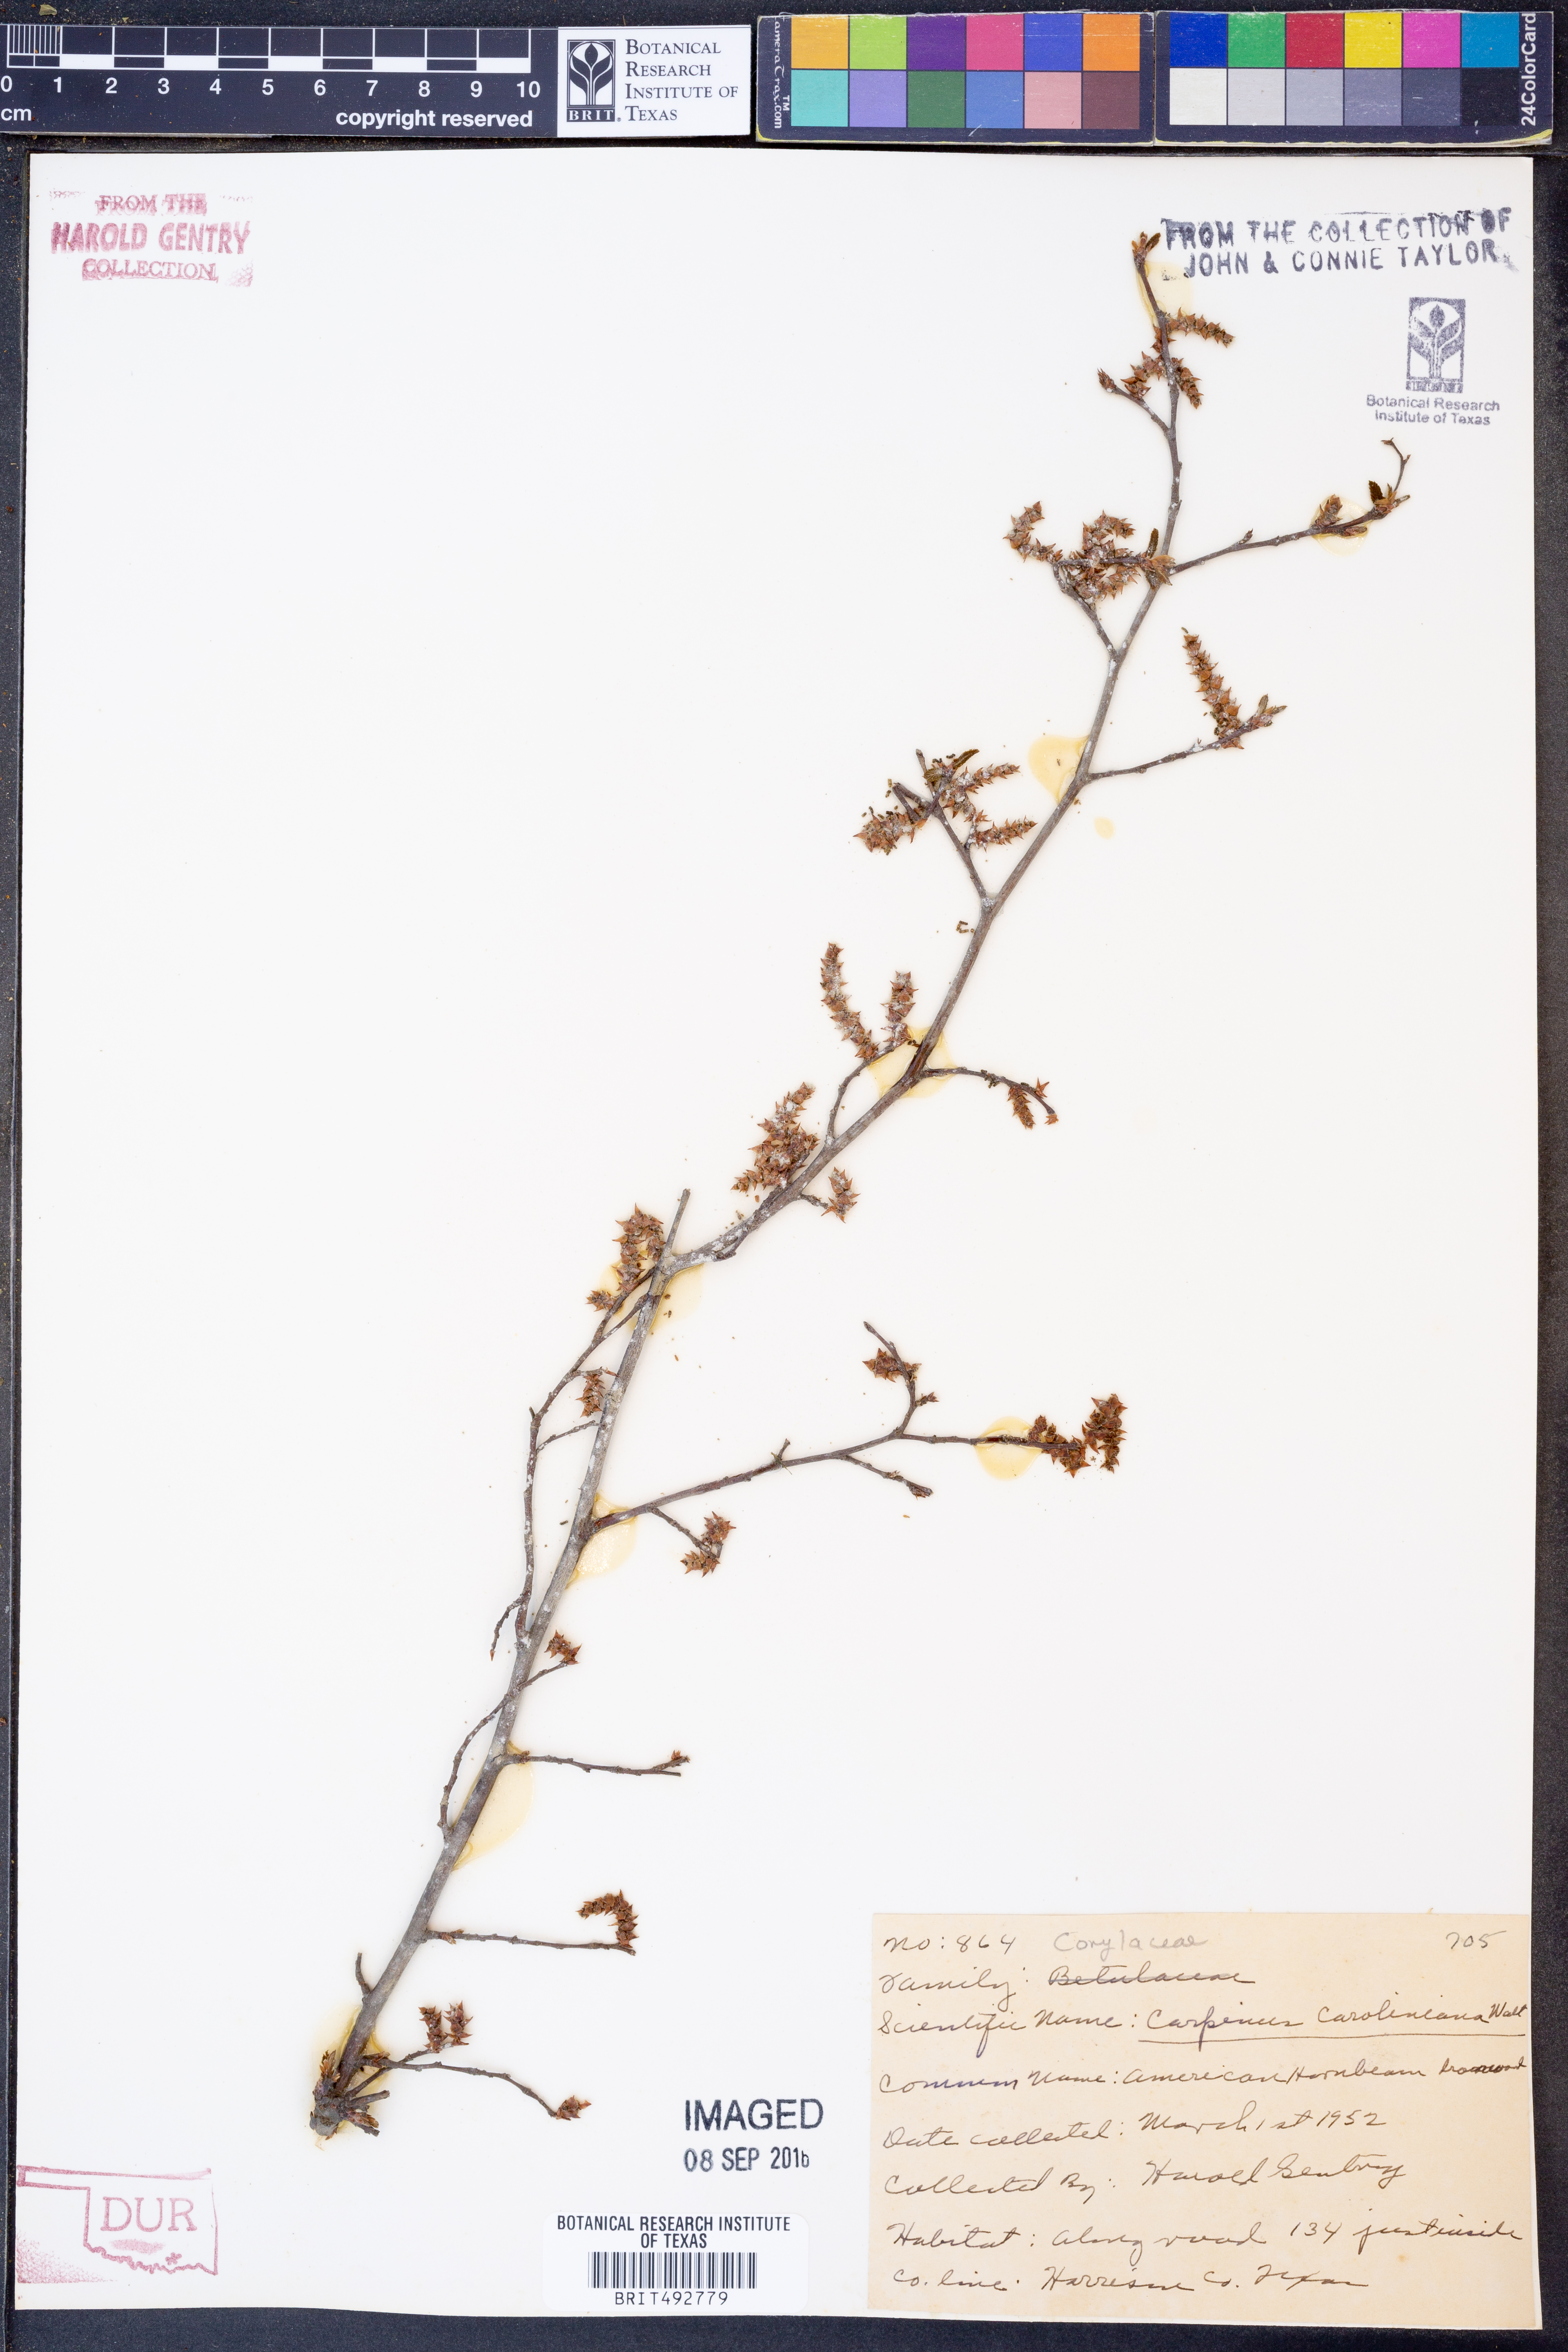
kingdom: Plantae
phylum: Tracheophyta
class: Magnoliopsida
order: Fagales
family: Betulaceae
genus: Carpinus
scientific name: Carpinus caroliniana
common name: American hornbeam
